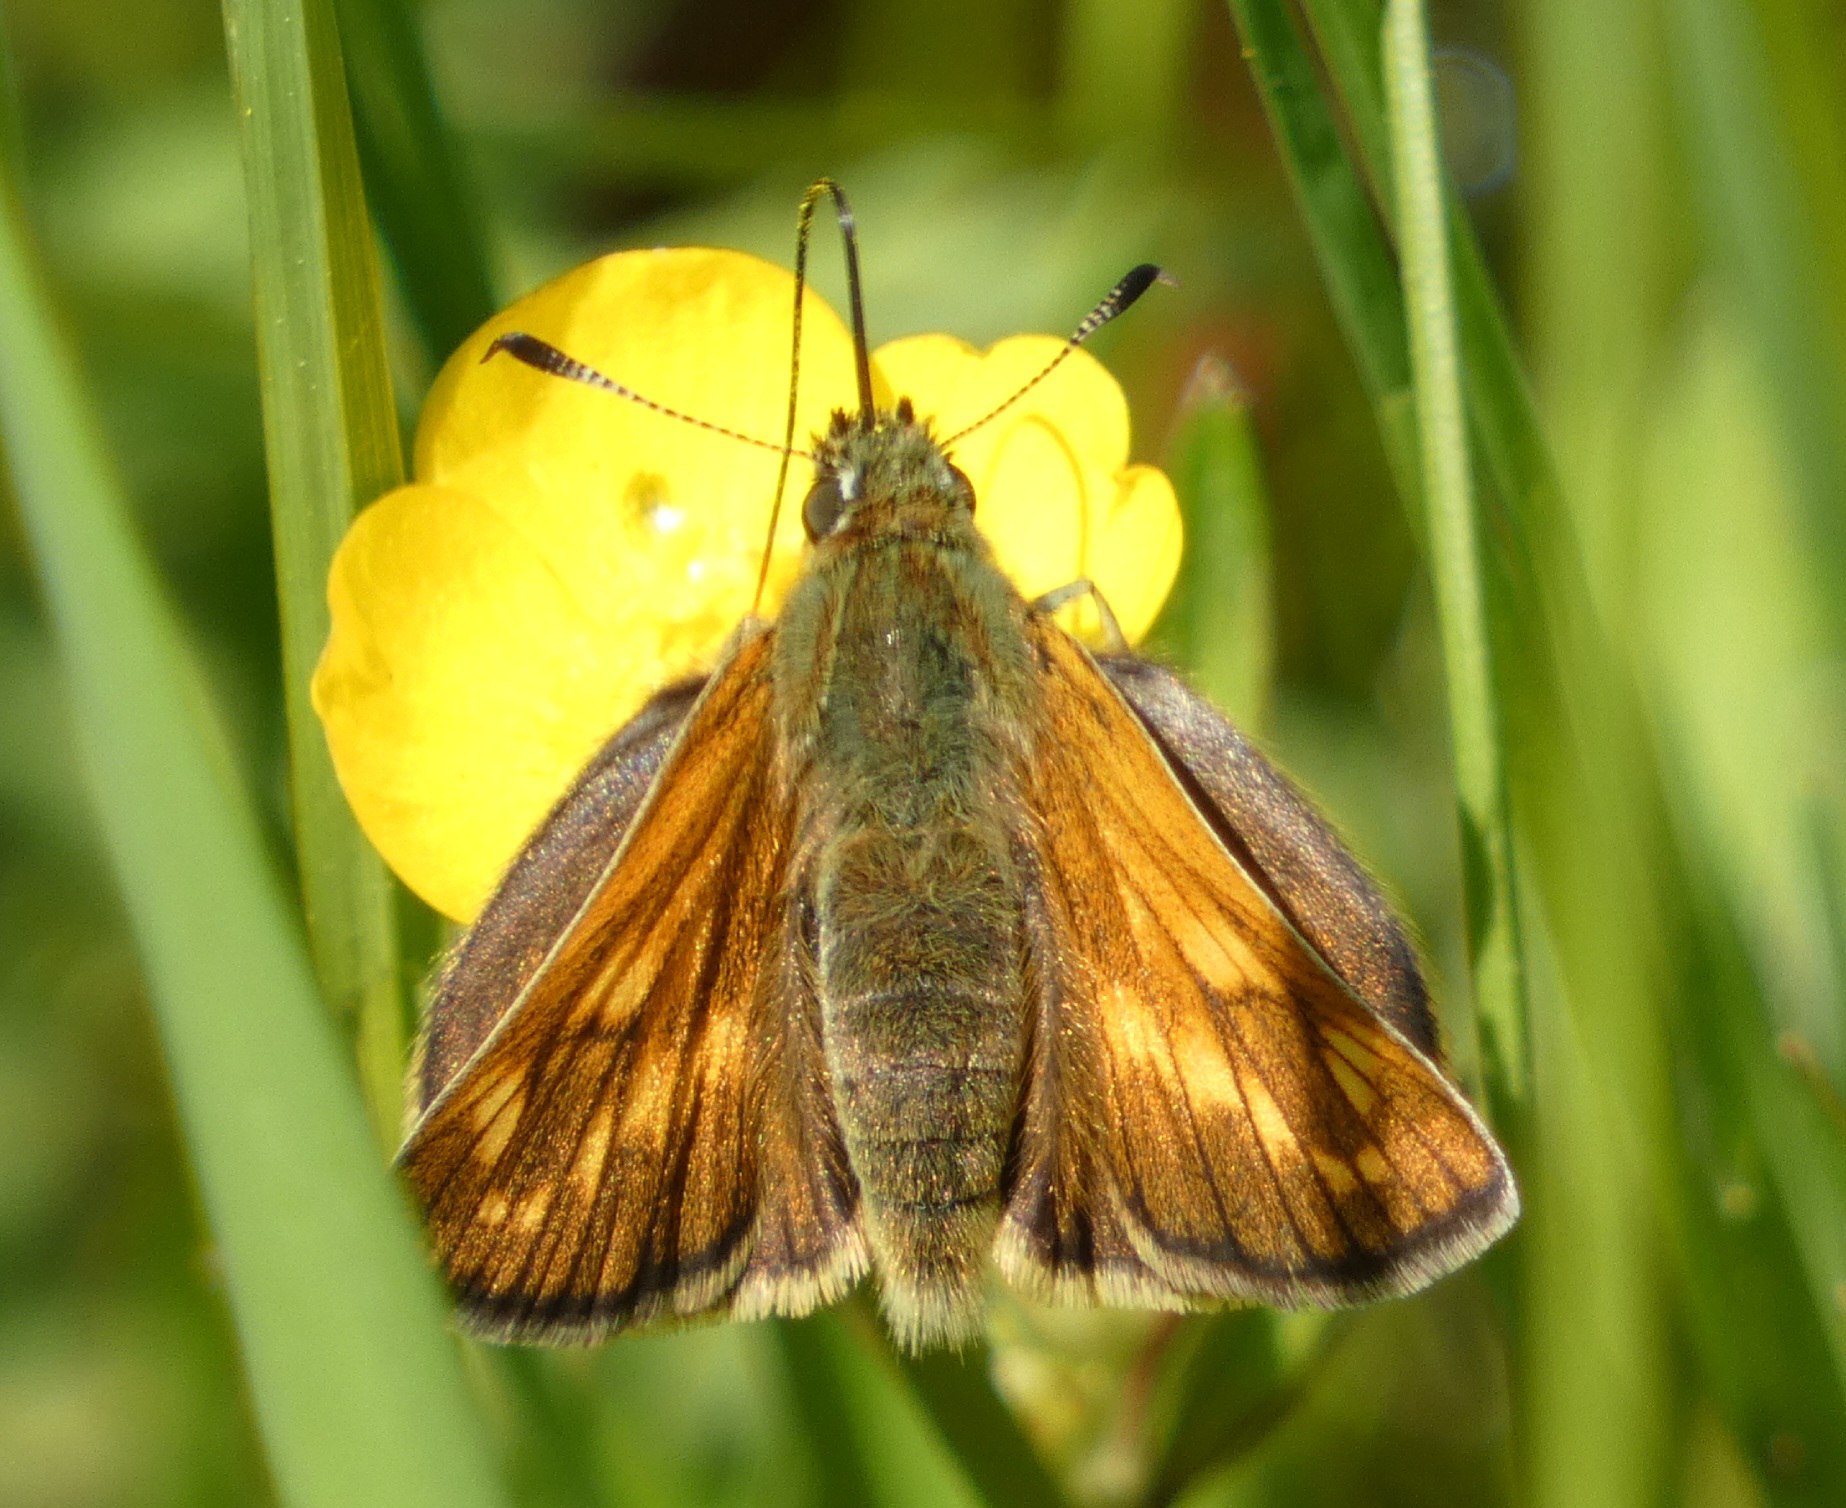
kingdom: Animalia
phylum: Arthropoda
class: Insecta
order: Lepidoptera
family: Hesperiidae
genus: Ochlodes
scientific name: Ochlodes venata
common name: Stor bredpande
